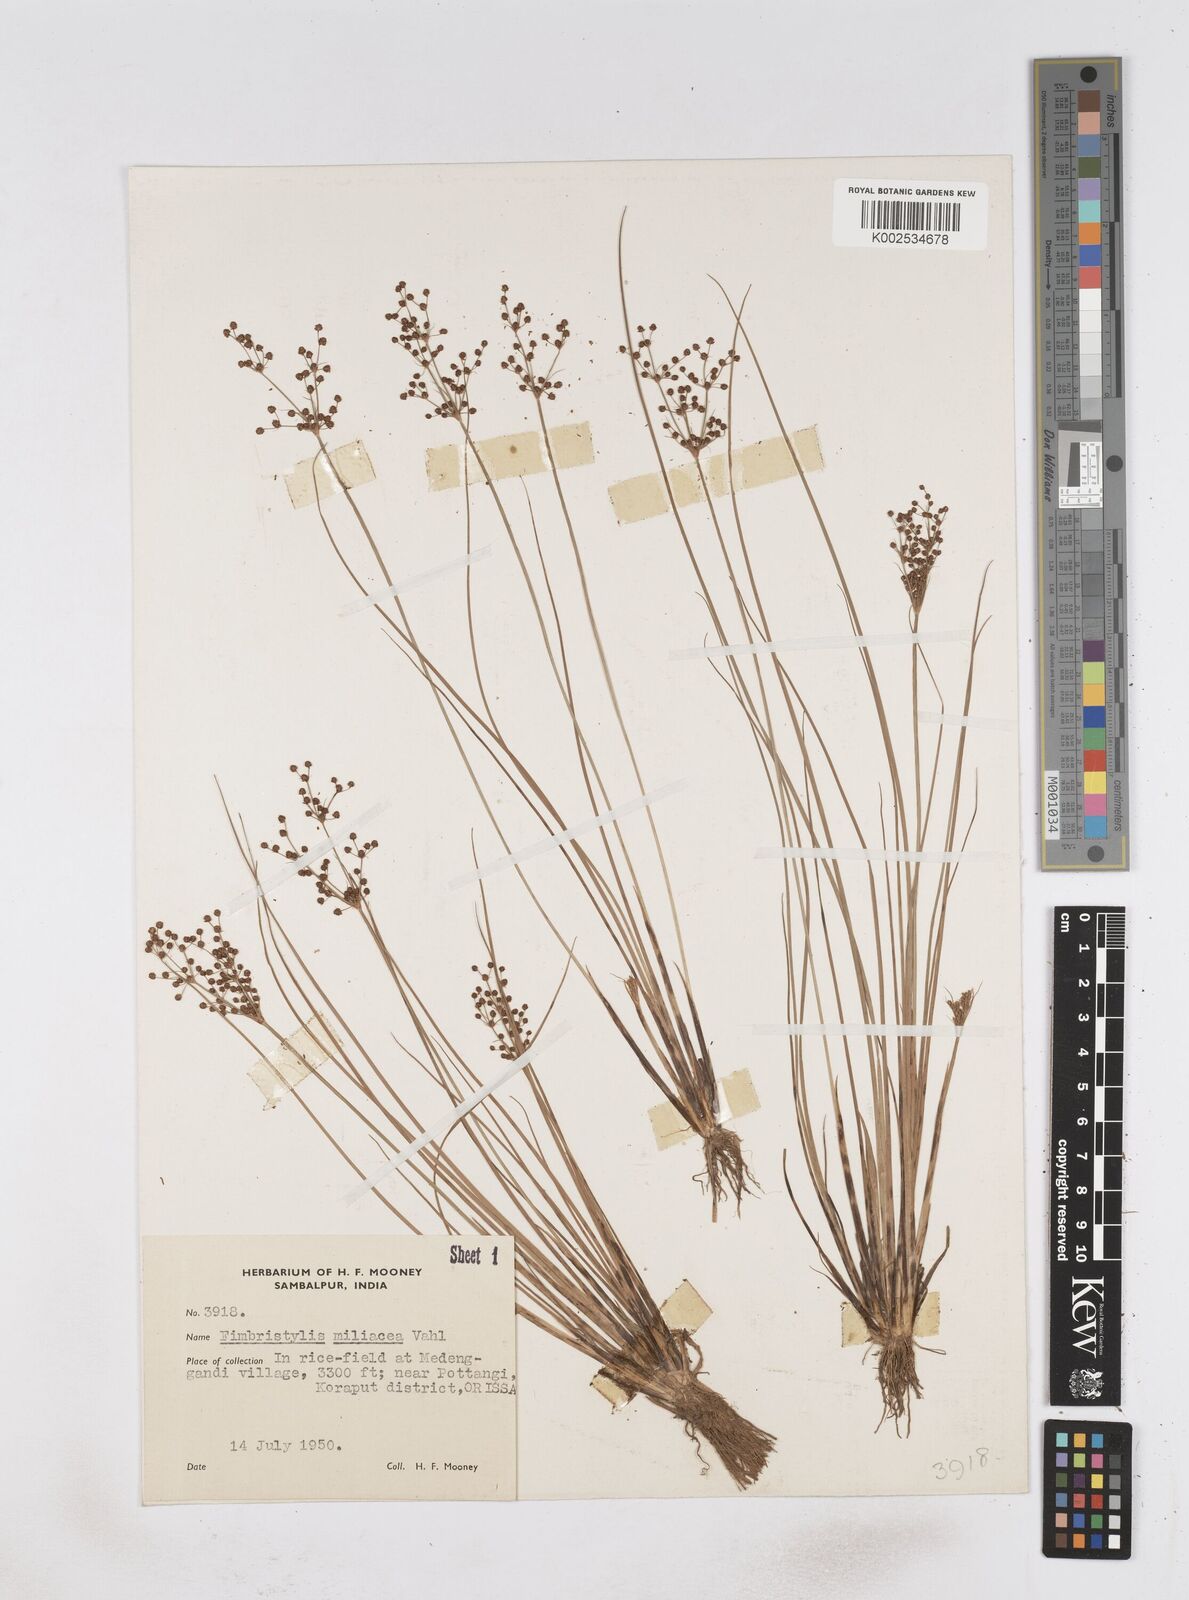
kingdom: Plantae
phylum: Tracheophyta
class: Liliopsida
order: Poales
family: Cyperaceae
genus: Fimbristylis
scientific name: Fimbristylis littoralis
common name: Fimbry
